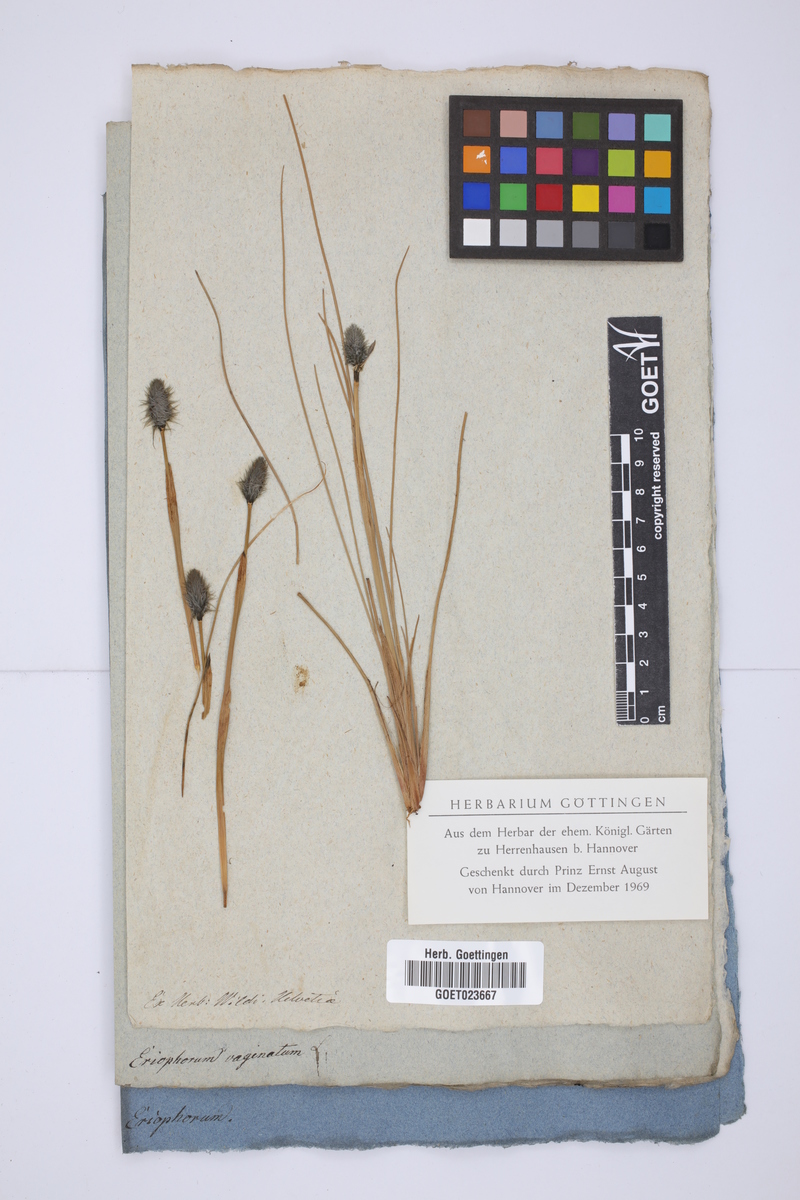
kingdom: Plantae
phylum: Tracheophyta
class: Liliopsida
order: Poales
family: Cyperaceae
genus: Eriophorum
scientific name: Eriophorum vaginatum
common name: Hare's-tail cottongrass
